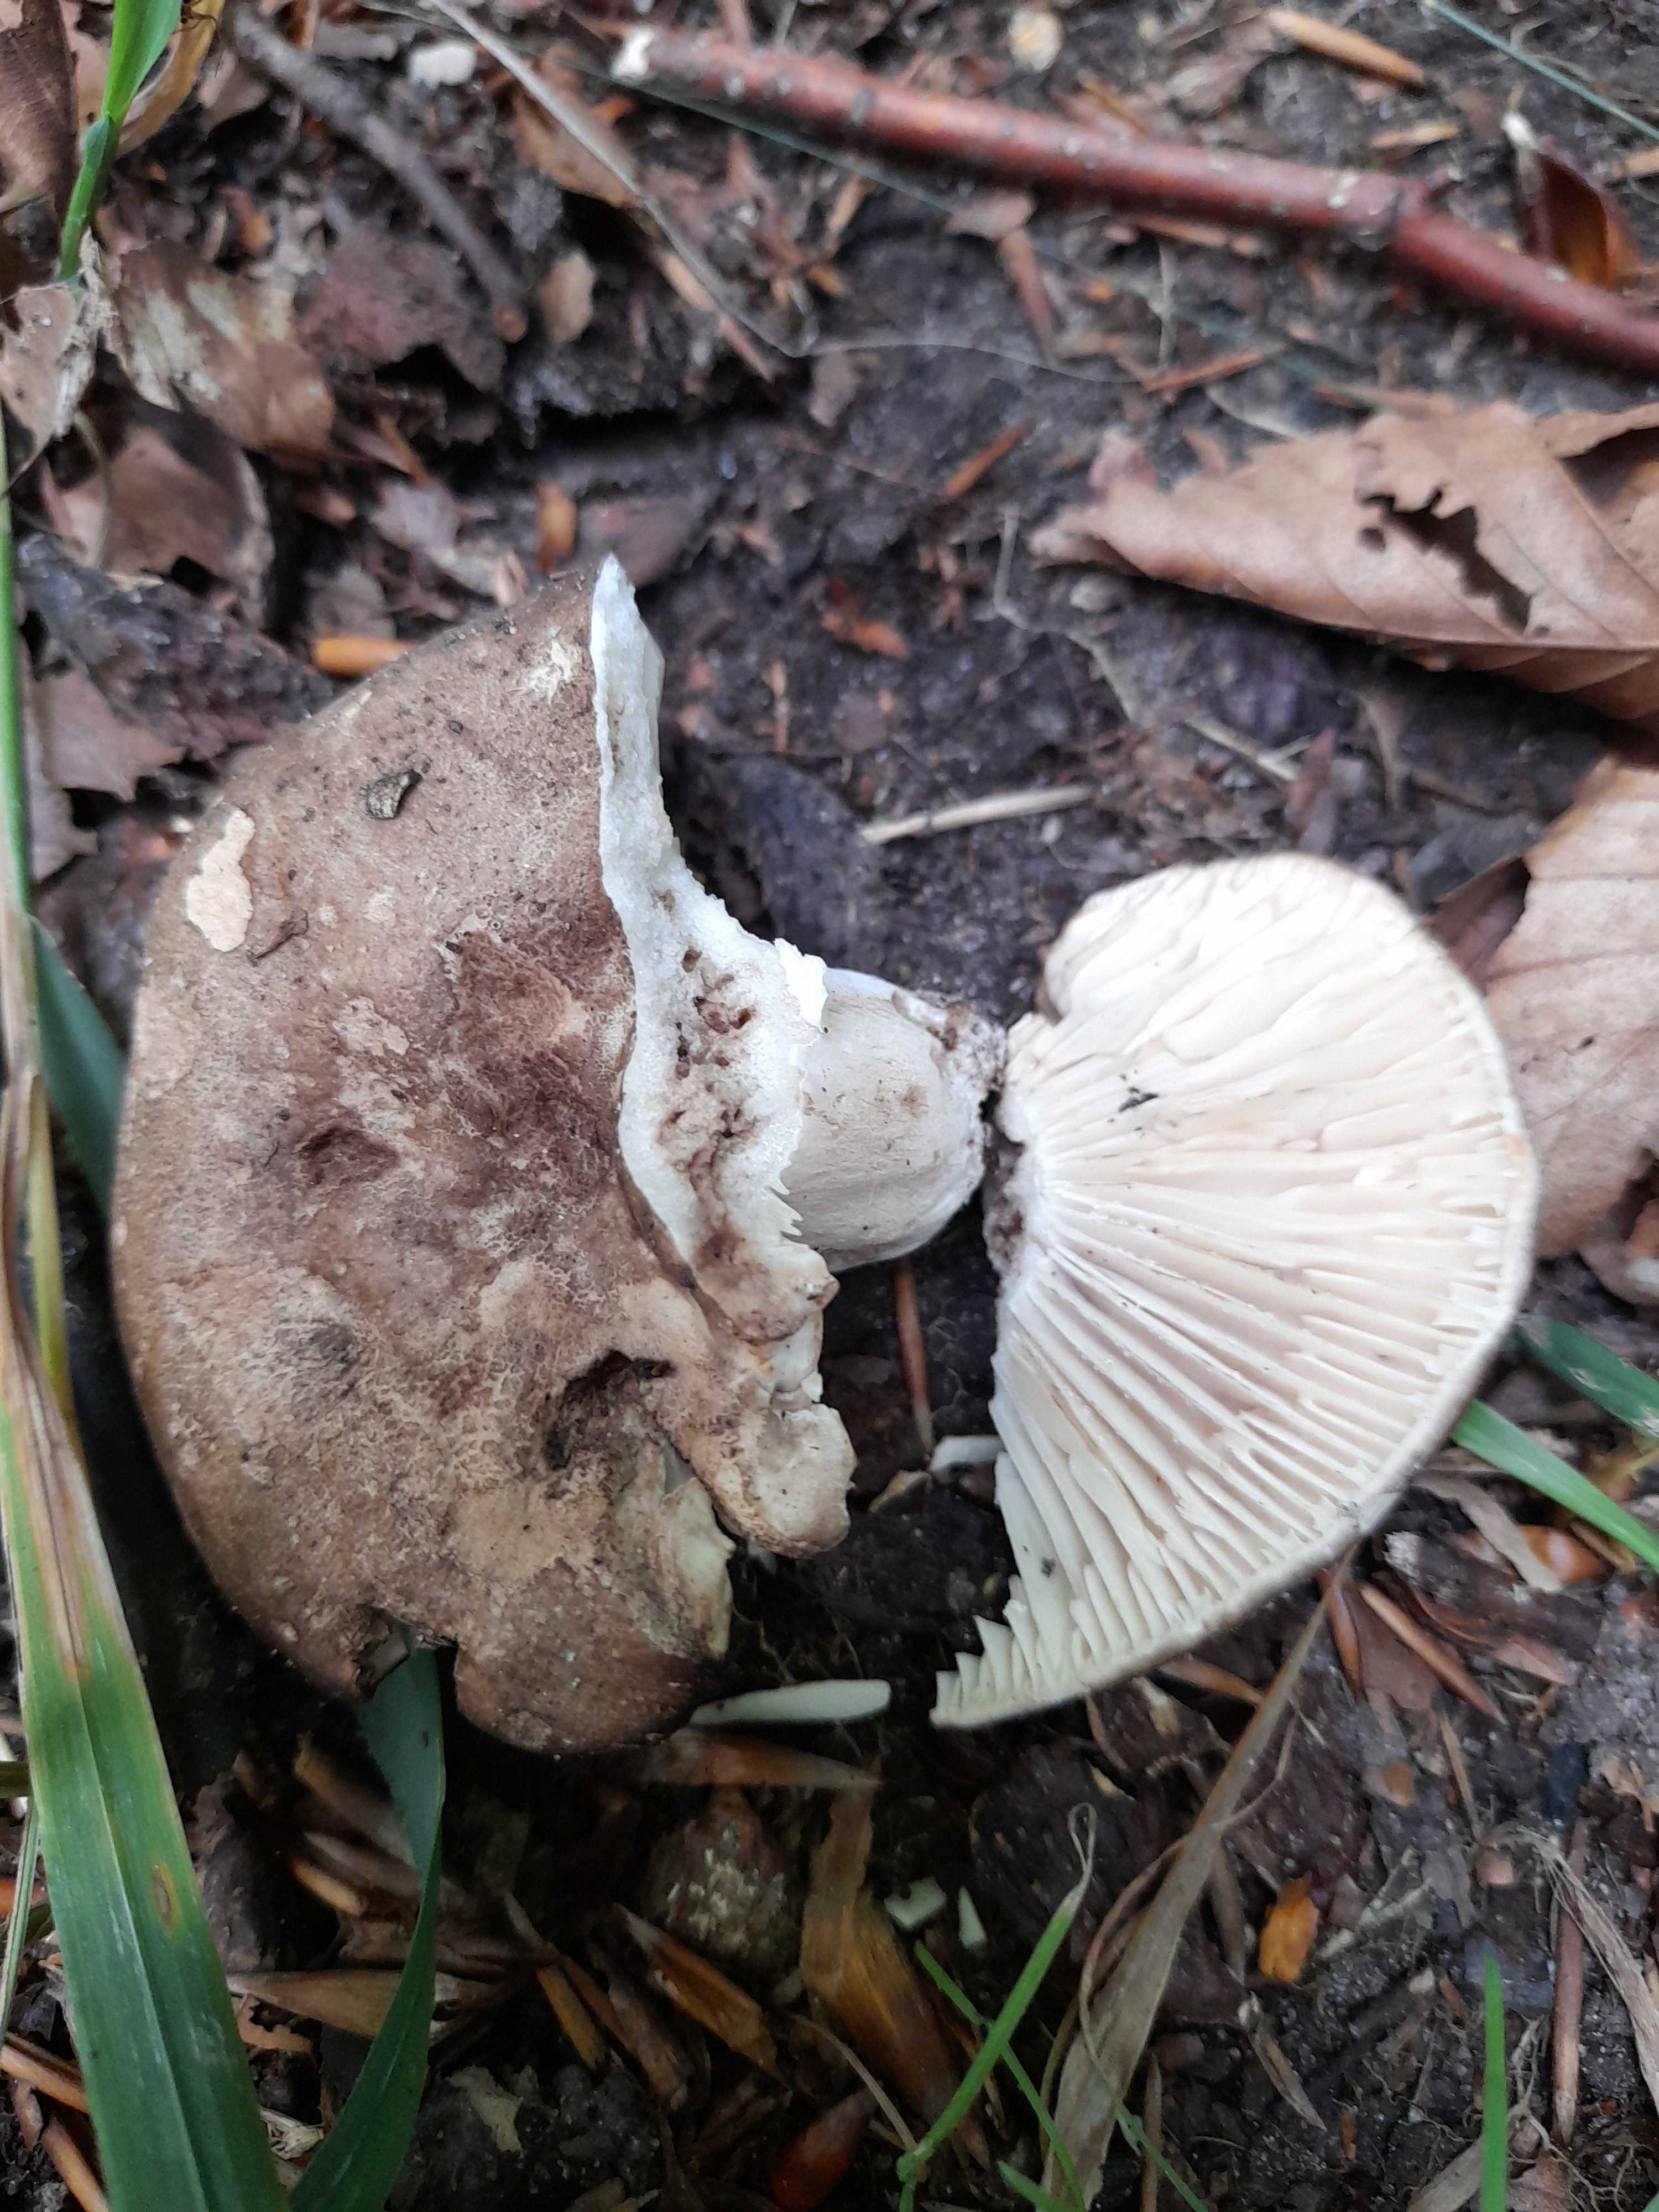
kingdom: Fungi
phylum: Basidiomycota
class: Agaricomycetes
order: Russulales
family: Russulaceae
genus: Russula
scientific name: Russula adusta
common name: sværtende skørhat
